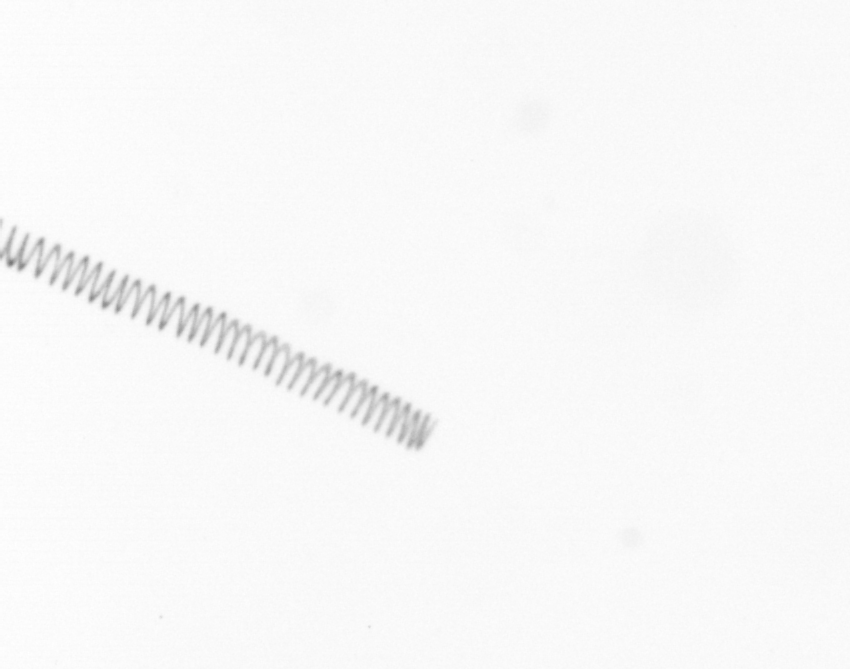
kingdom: Chromista
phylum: Ochrophyta
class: Bacillariophyceae
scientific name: Bacillariophyceae
